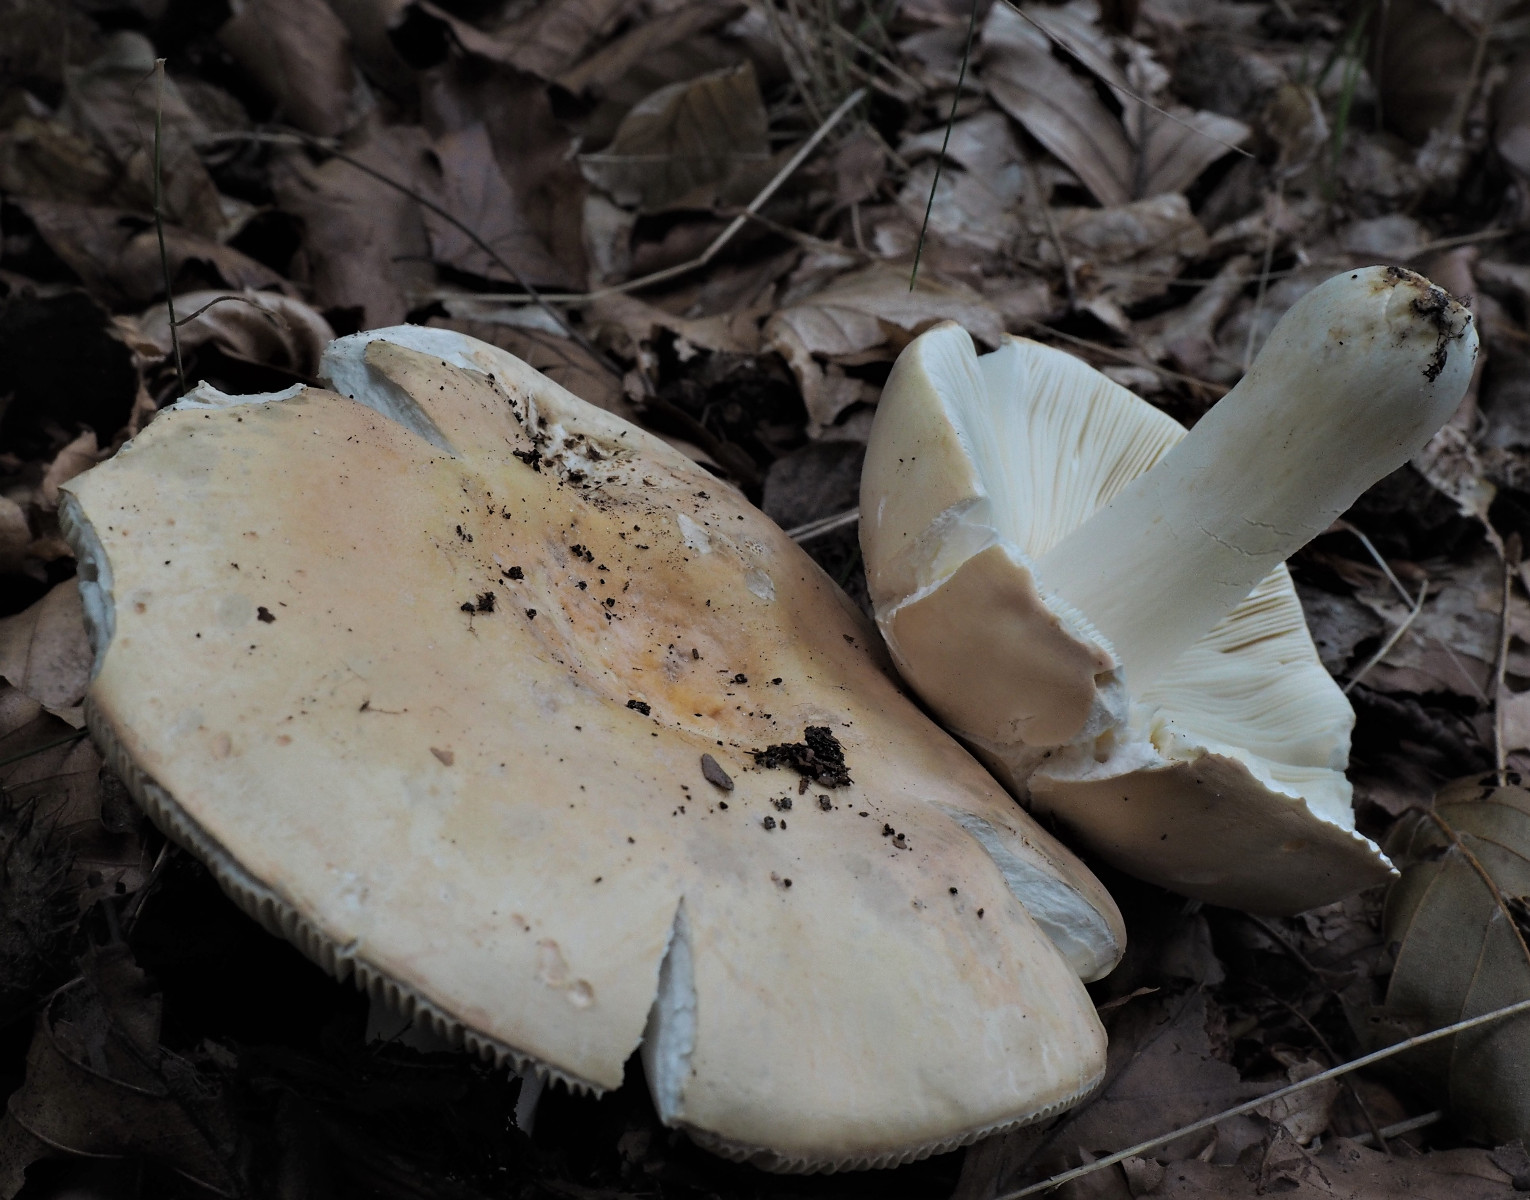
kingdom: Fungi
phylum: Basidiomycota
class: Agaricomycetes
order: Russulales
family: Russulaceae
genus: Russula
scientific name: Russula
